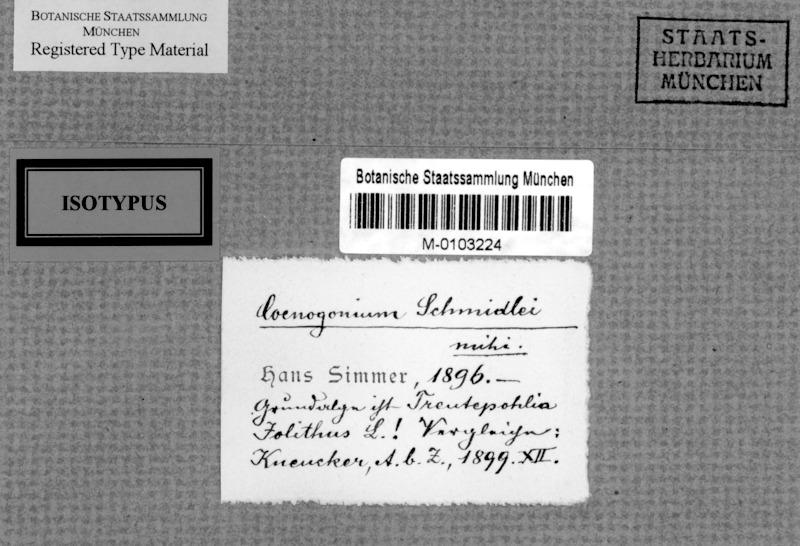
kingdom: Fungi
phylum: Ascomycota
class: Lecanoromycetes
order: Ostropales
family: Coenogoniaceae
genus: Coenogonium
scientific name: Coenogonium
